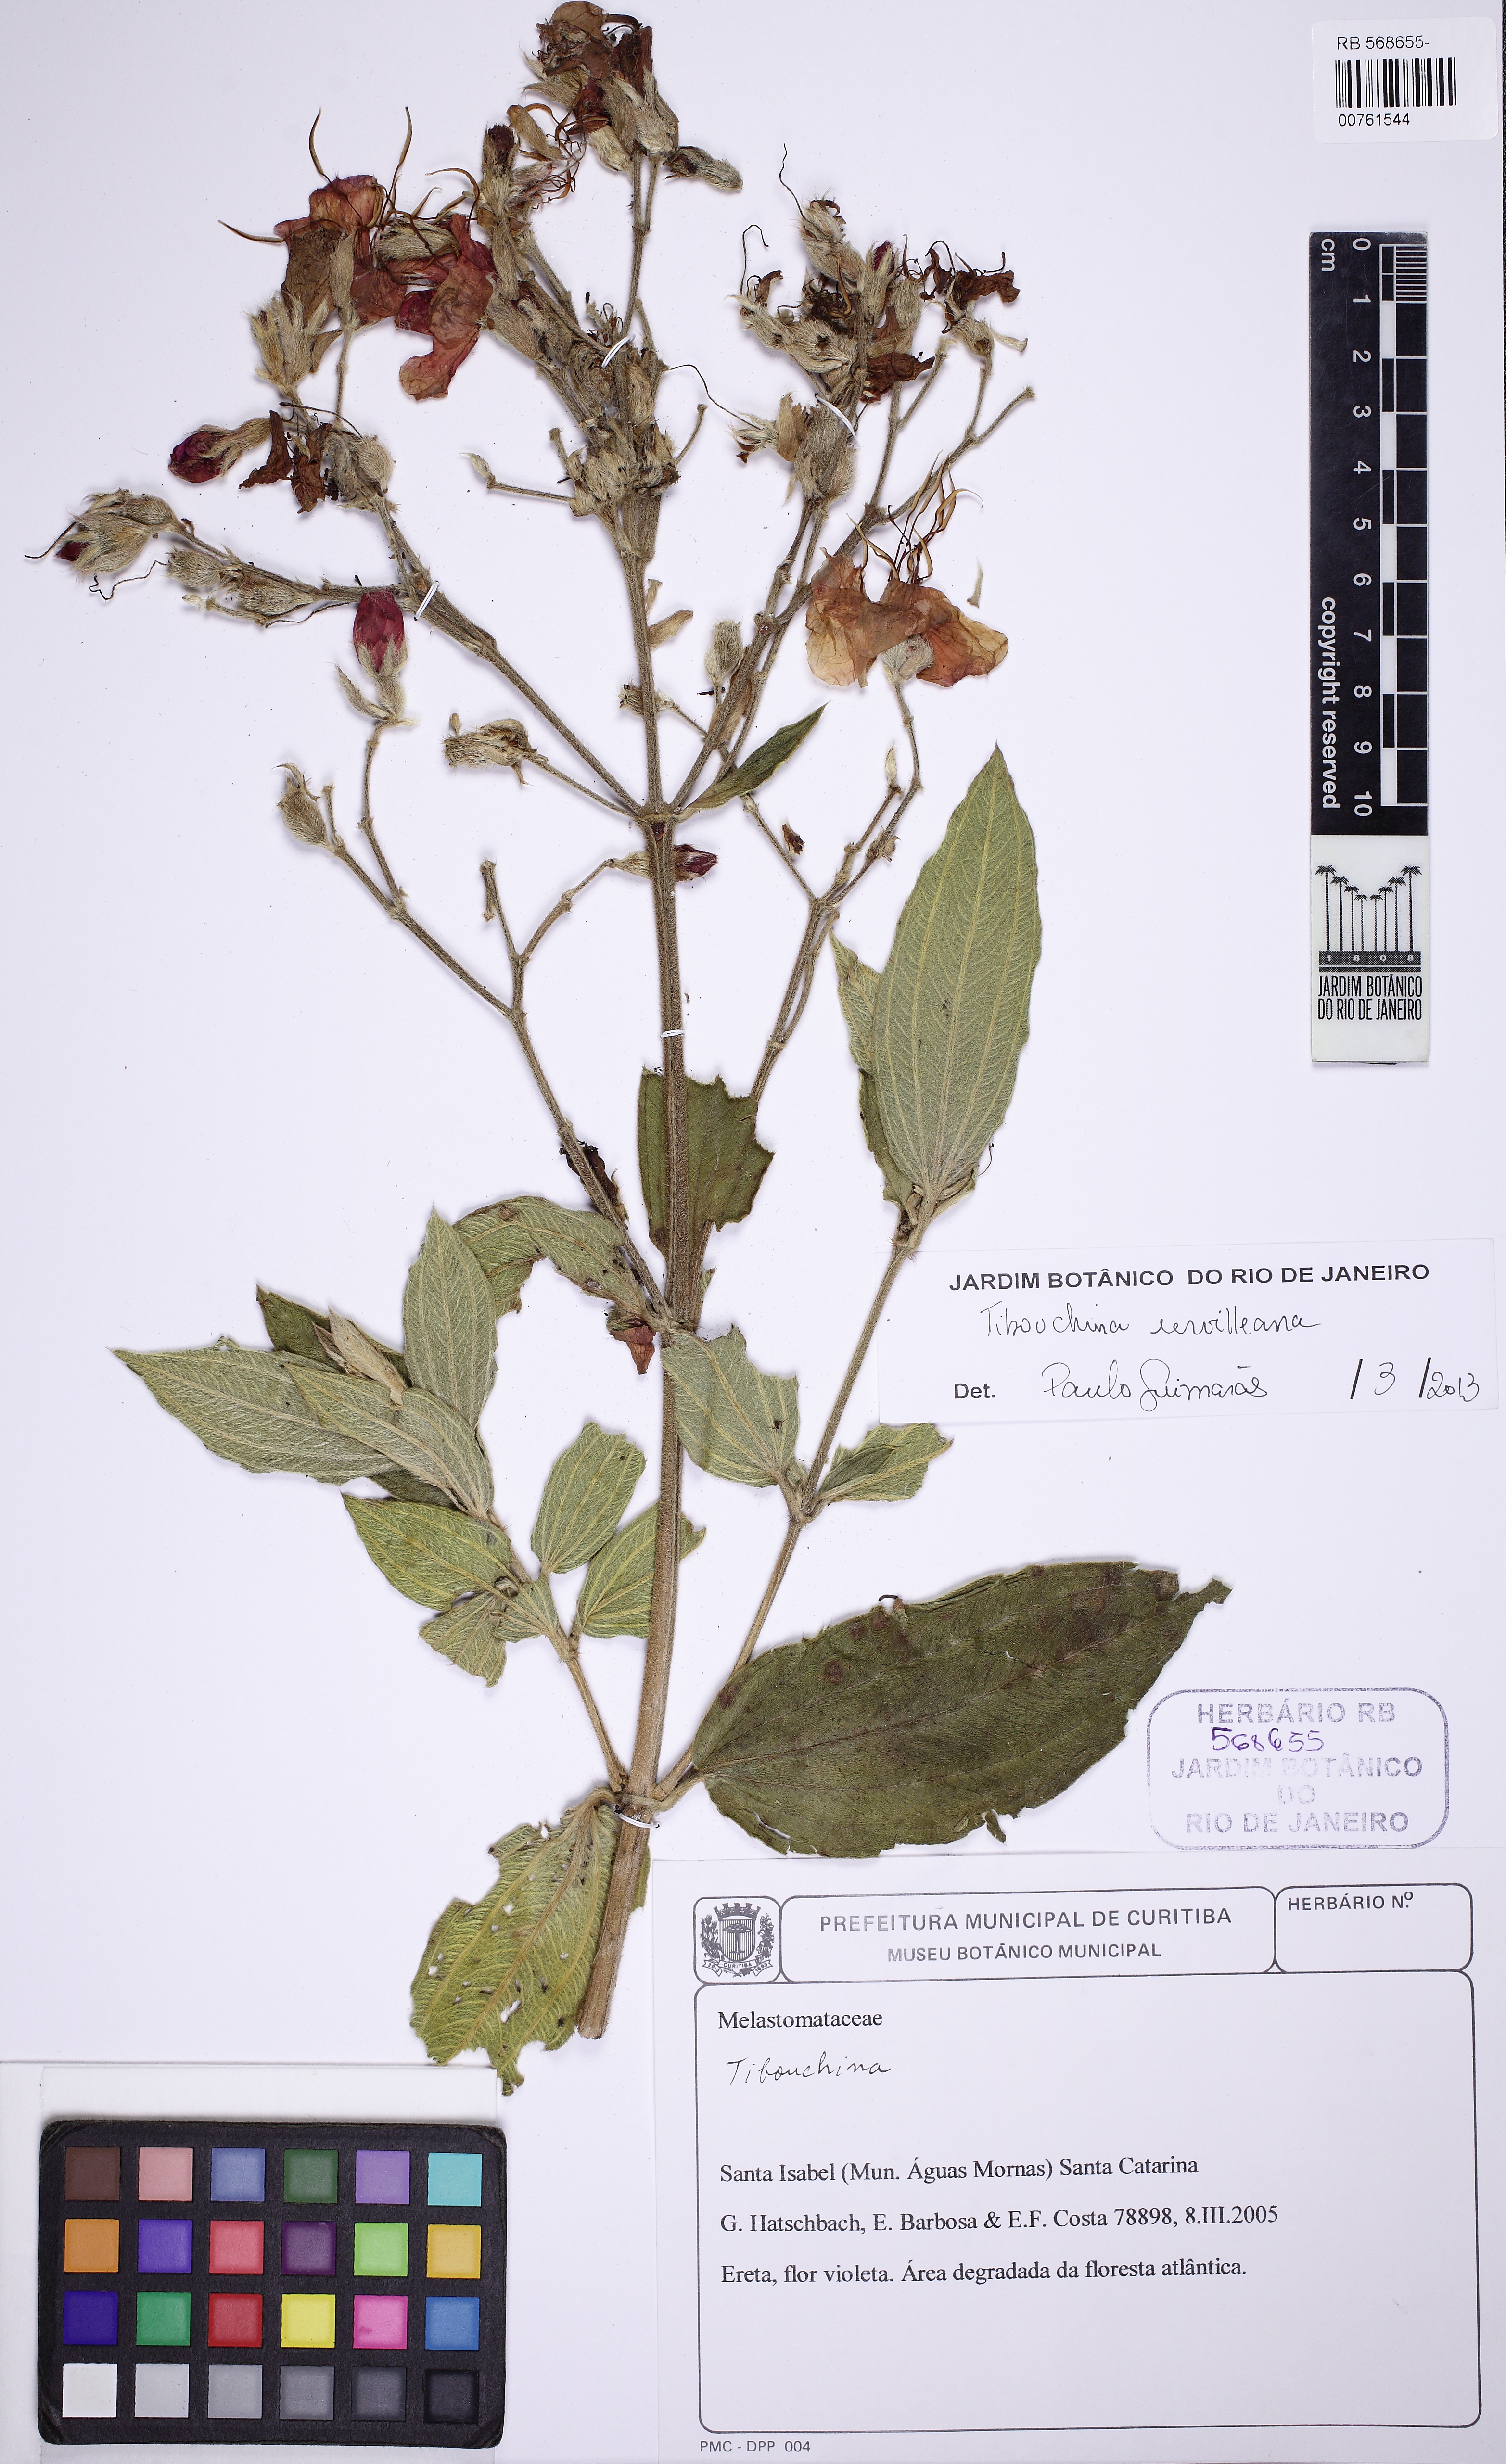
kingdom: Plantae
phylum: Tracheophyta
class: Magnoliopsida
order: Myrtales
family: Melastomataceae
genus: Pleroma
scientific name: Pleroma urvilleanum
